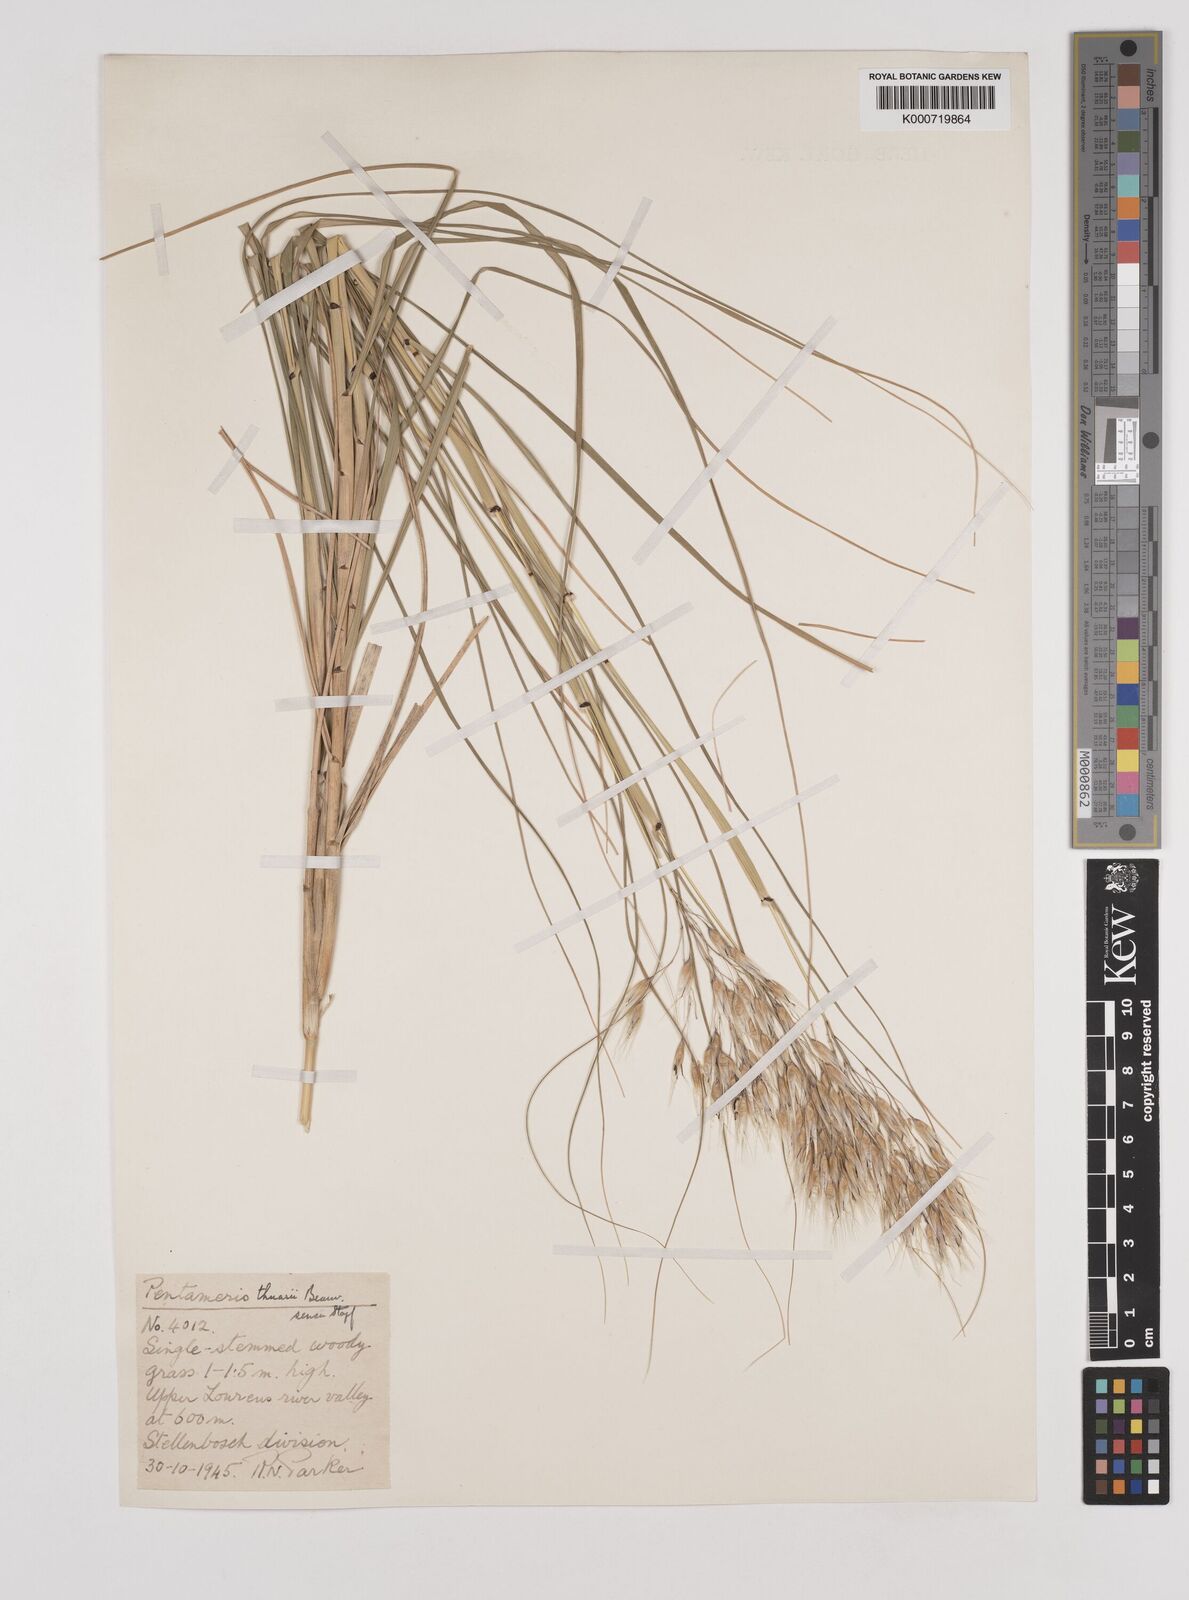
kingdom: Plantae
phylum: Tracheophyta
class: Liliopsida
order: Poales
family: Poaceae
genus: Pentameris
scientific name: Pentameris thuarii
